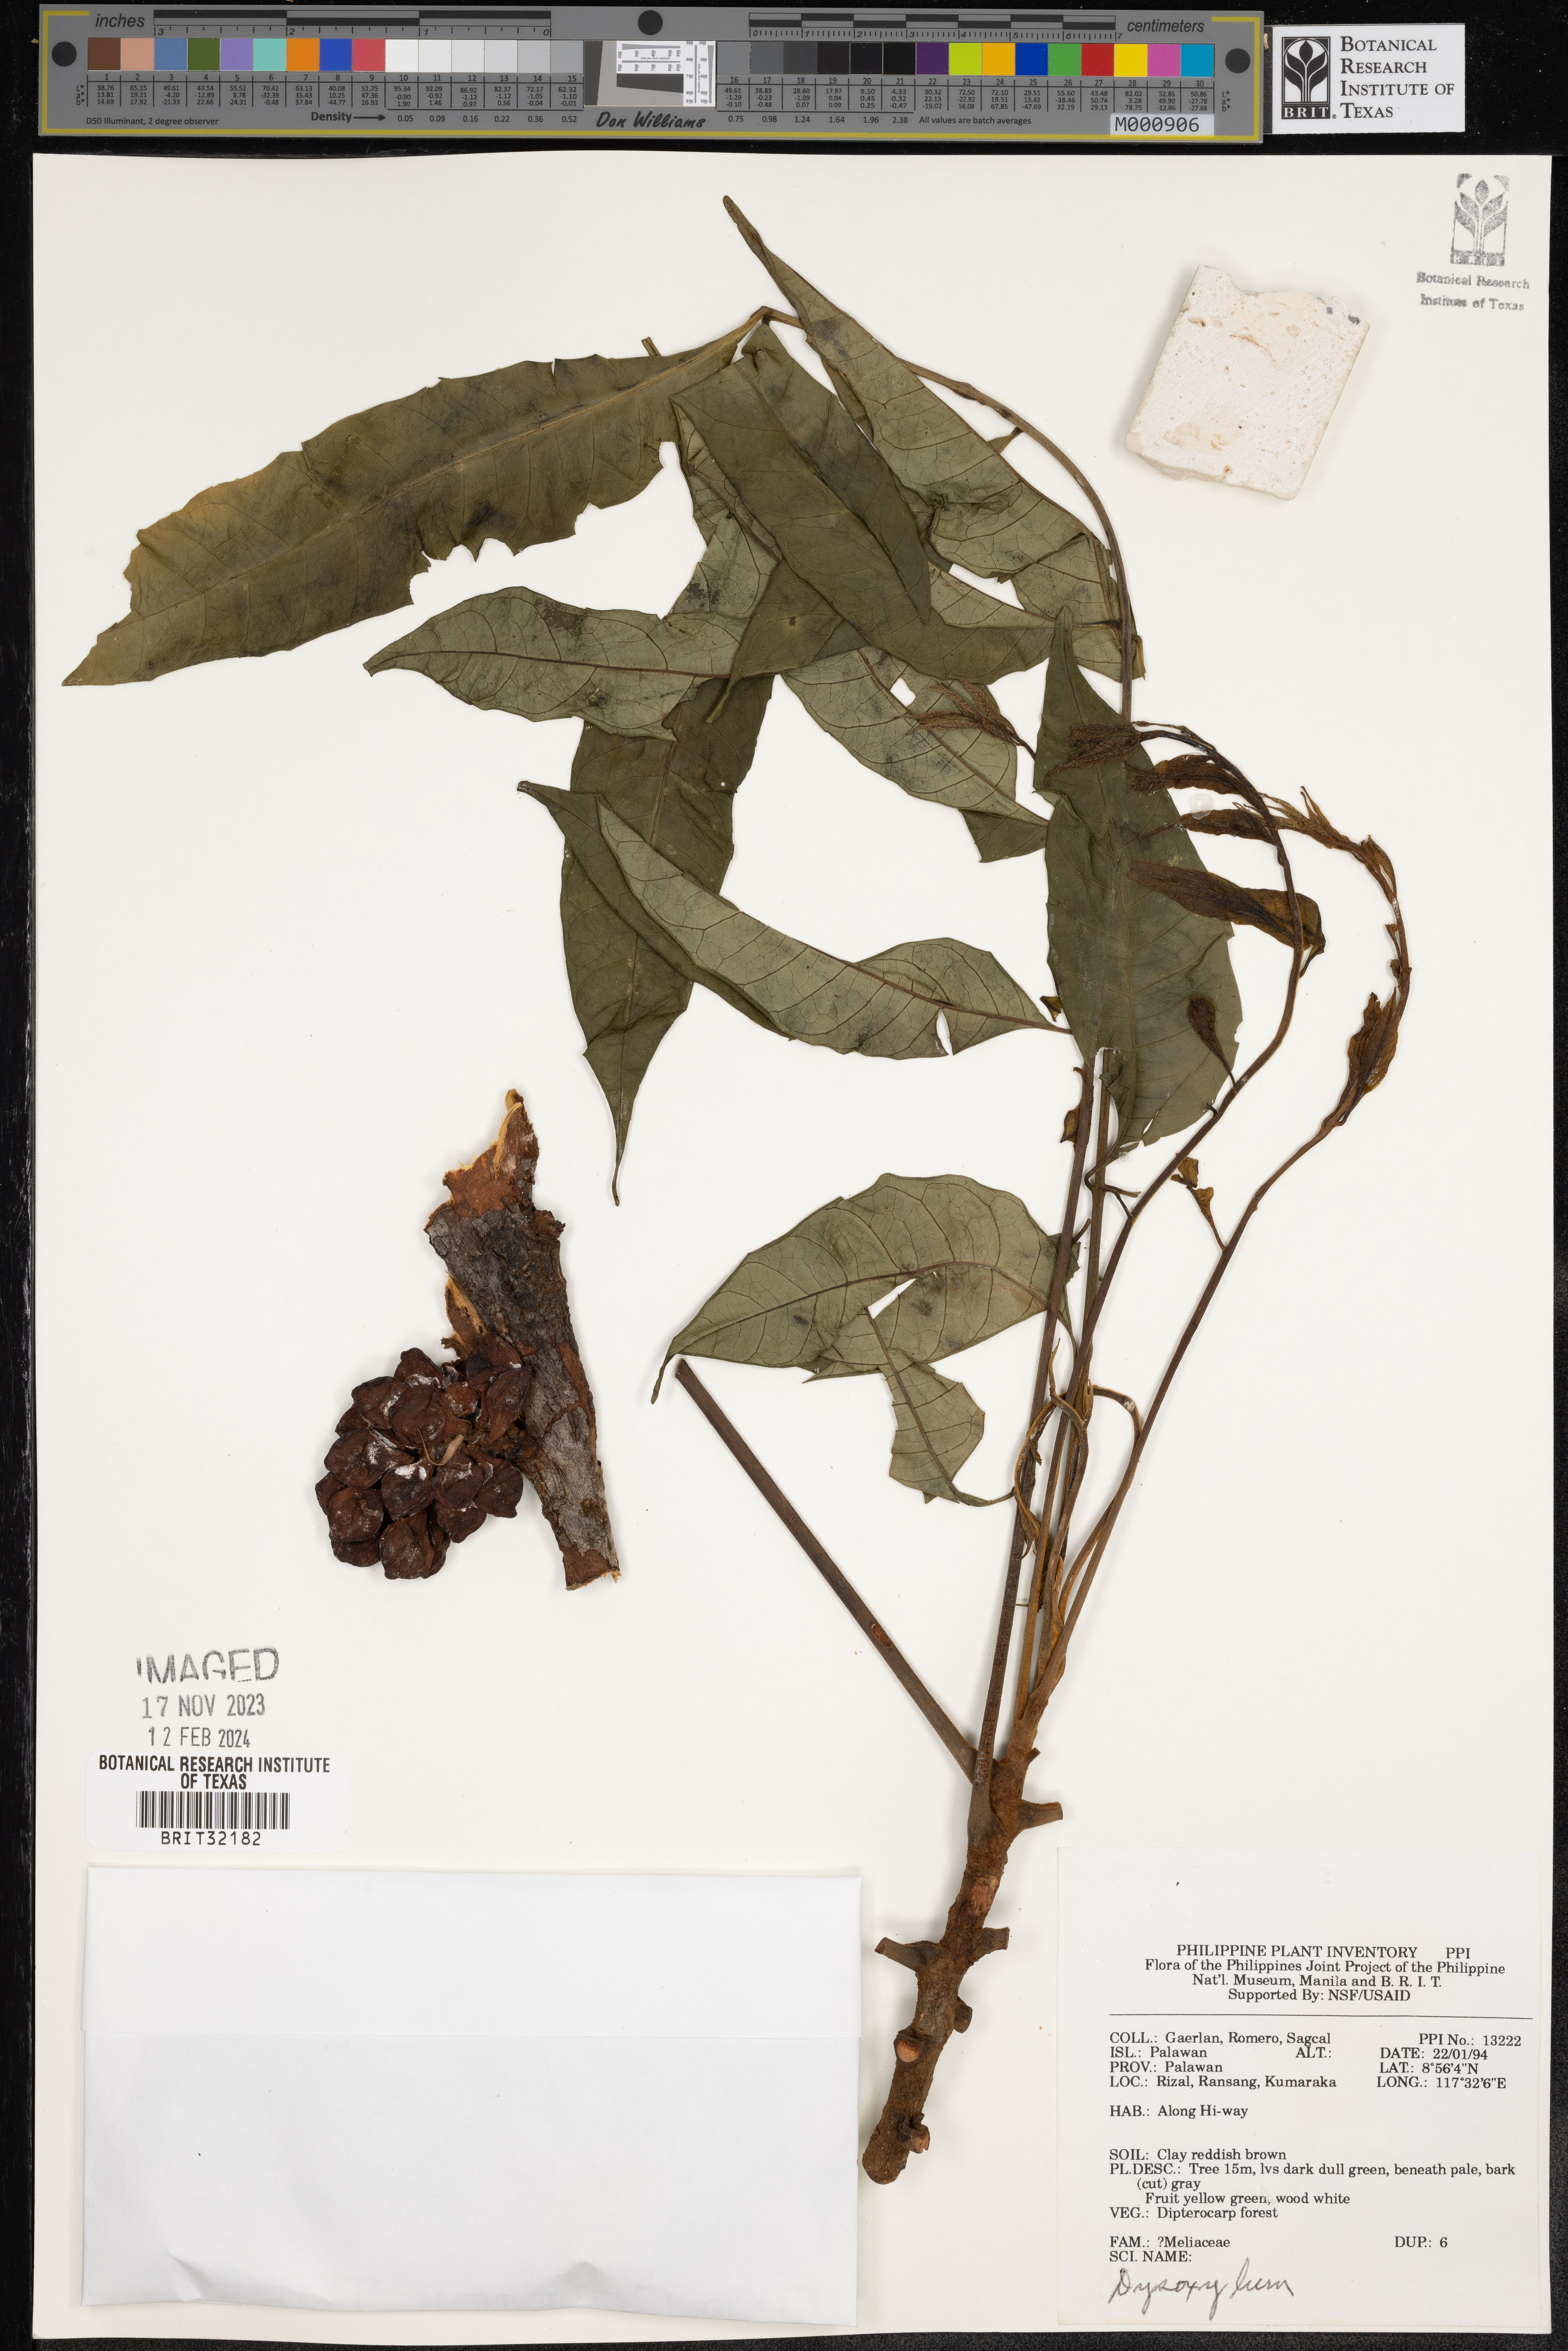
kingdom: Plantae
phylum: Tracheophyta
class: Magnoliopsida
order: Sapindales
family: Meliaceae
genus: Dysoxylum
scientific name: Dysoxylum
